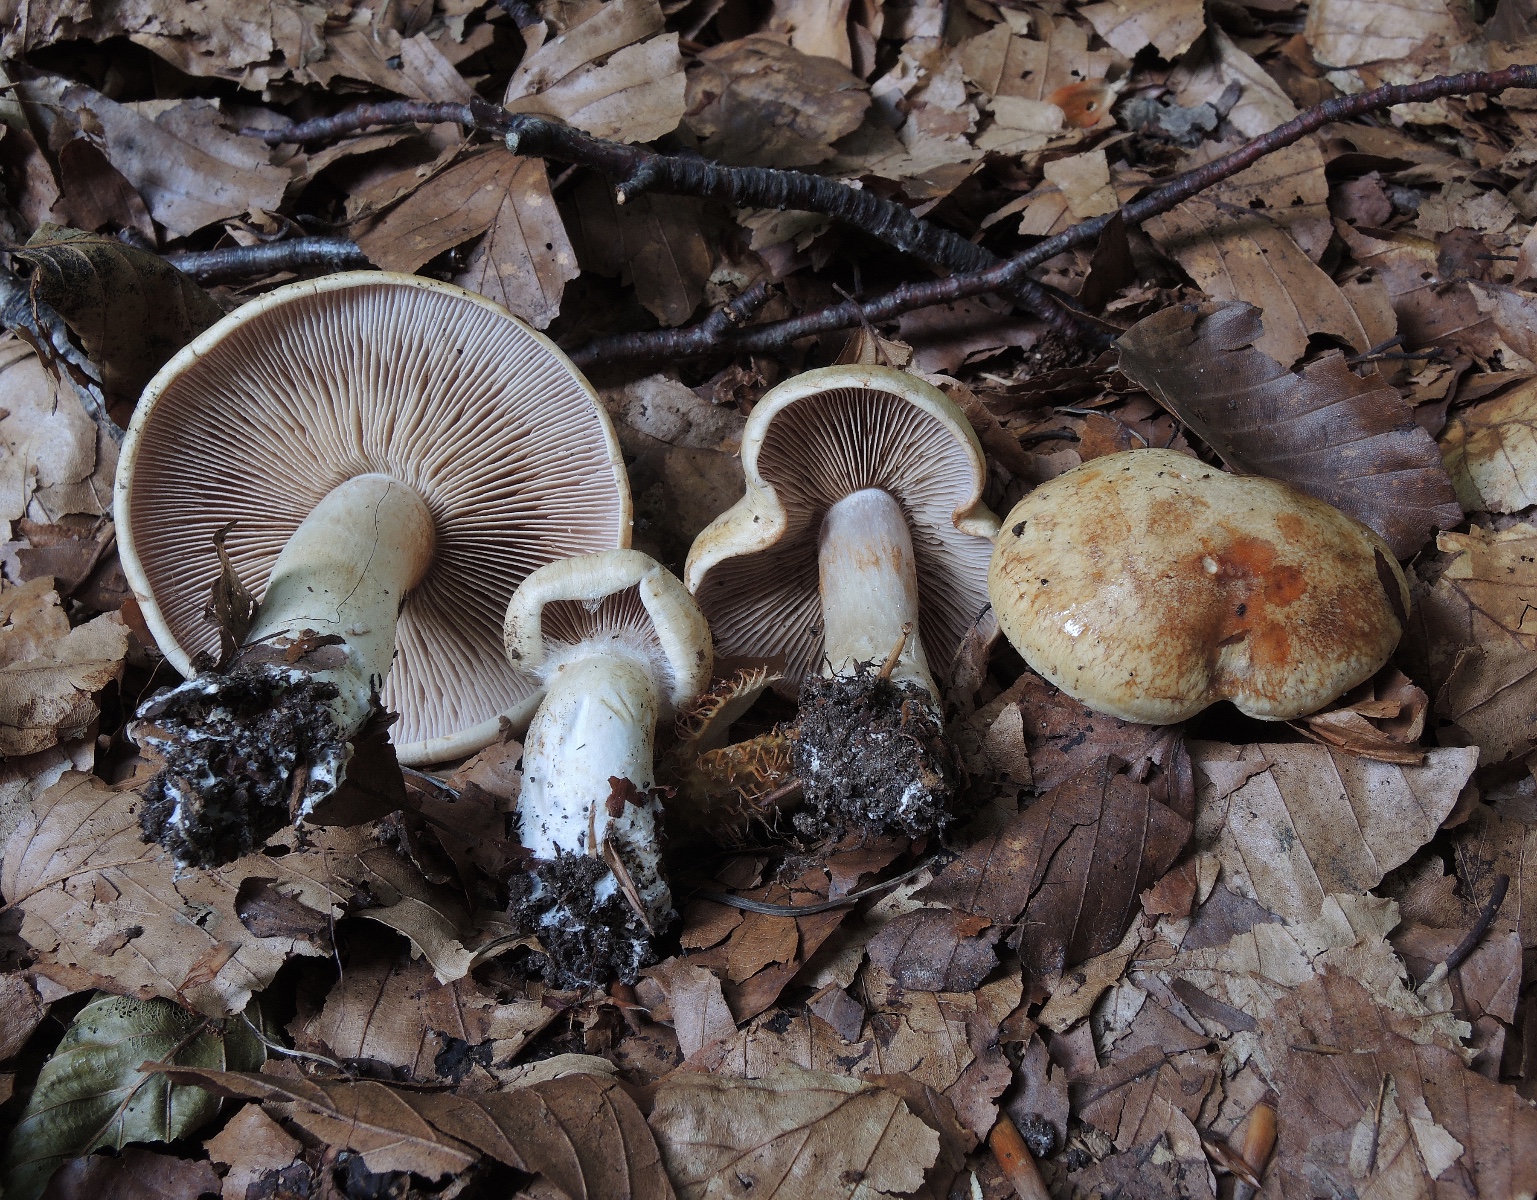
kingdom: Fungi
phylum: Basidiomycota
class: Agaricomycetes
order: Agaricales
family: Cortinariaceae
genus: Phlegmacium
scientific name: Phlegmacium brunneiaurantium
